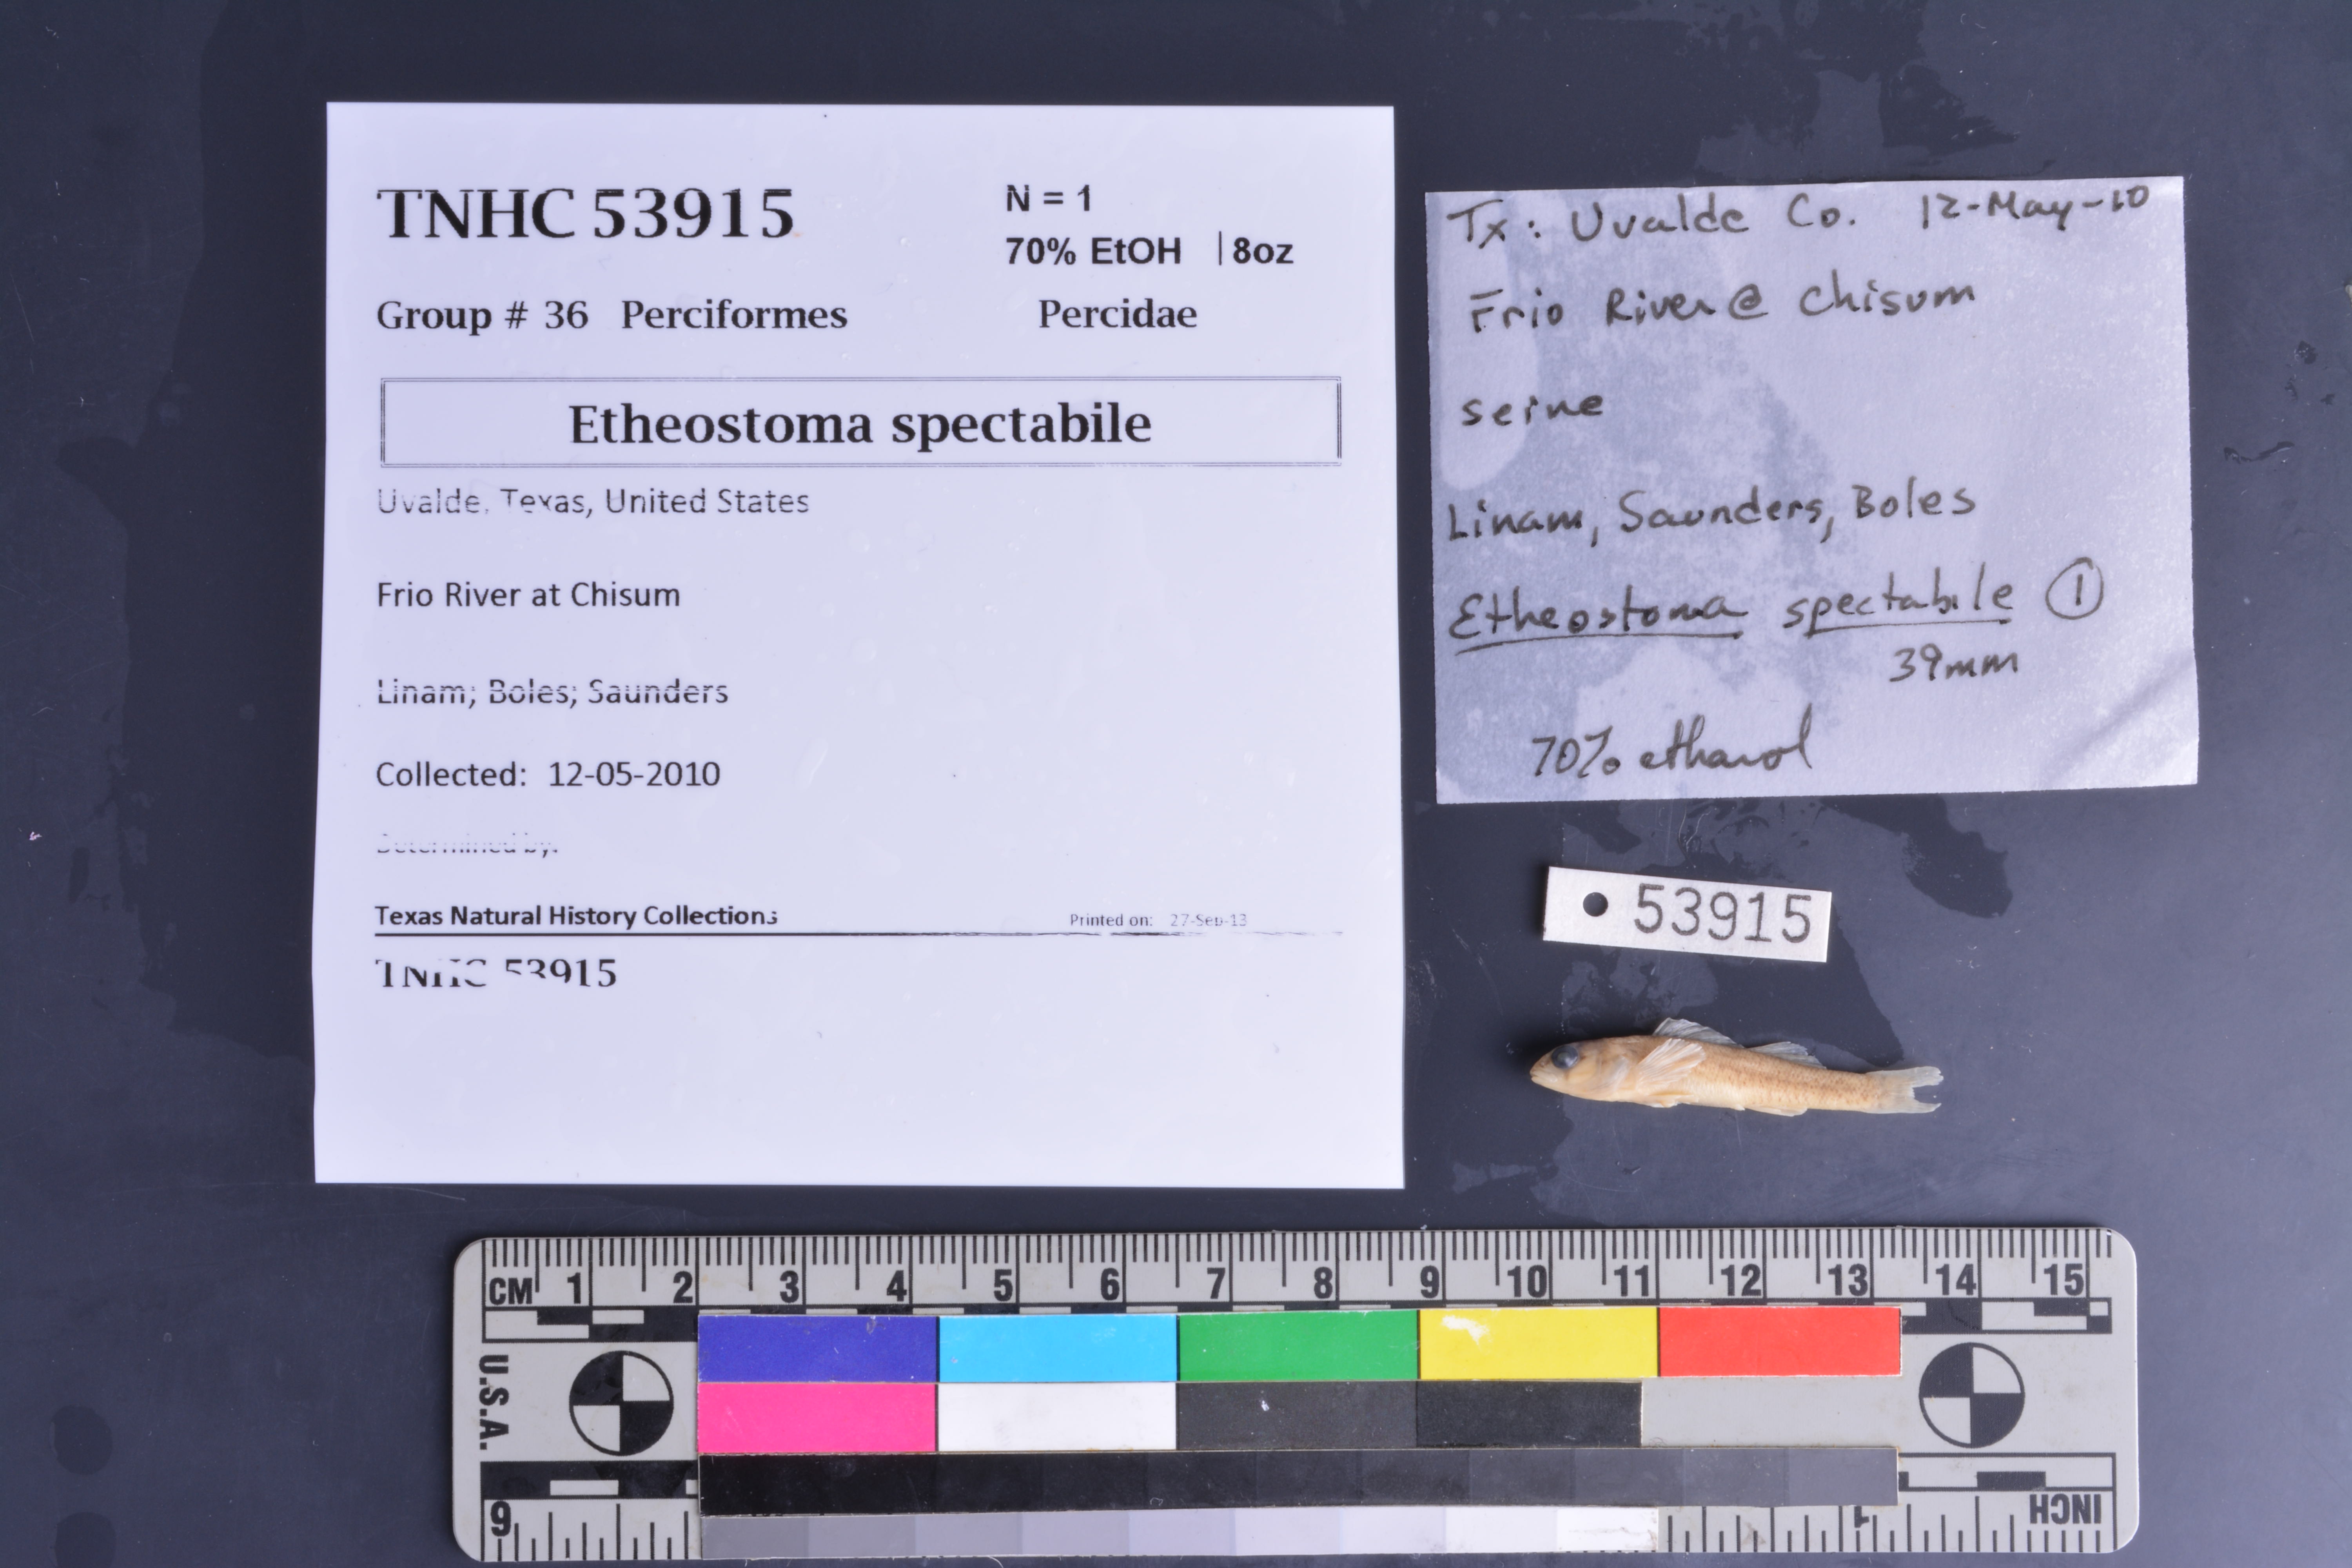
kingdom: Animalia
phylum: Chordata
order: Perciformes
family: Percidae
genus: Etheostoma
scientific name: Etheostoma spectabile
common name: Orangethroat darter
